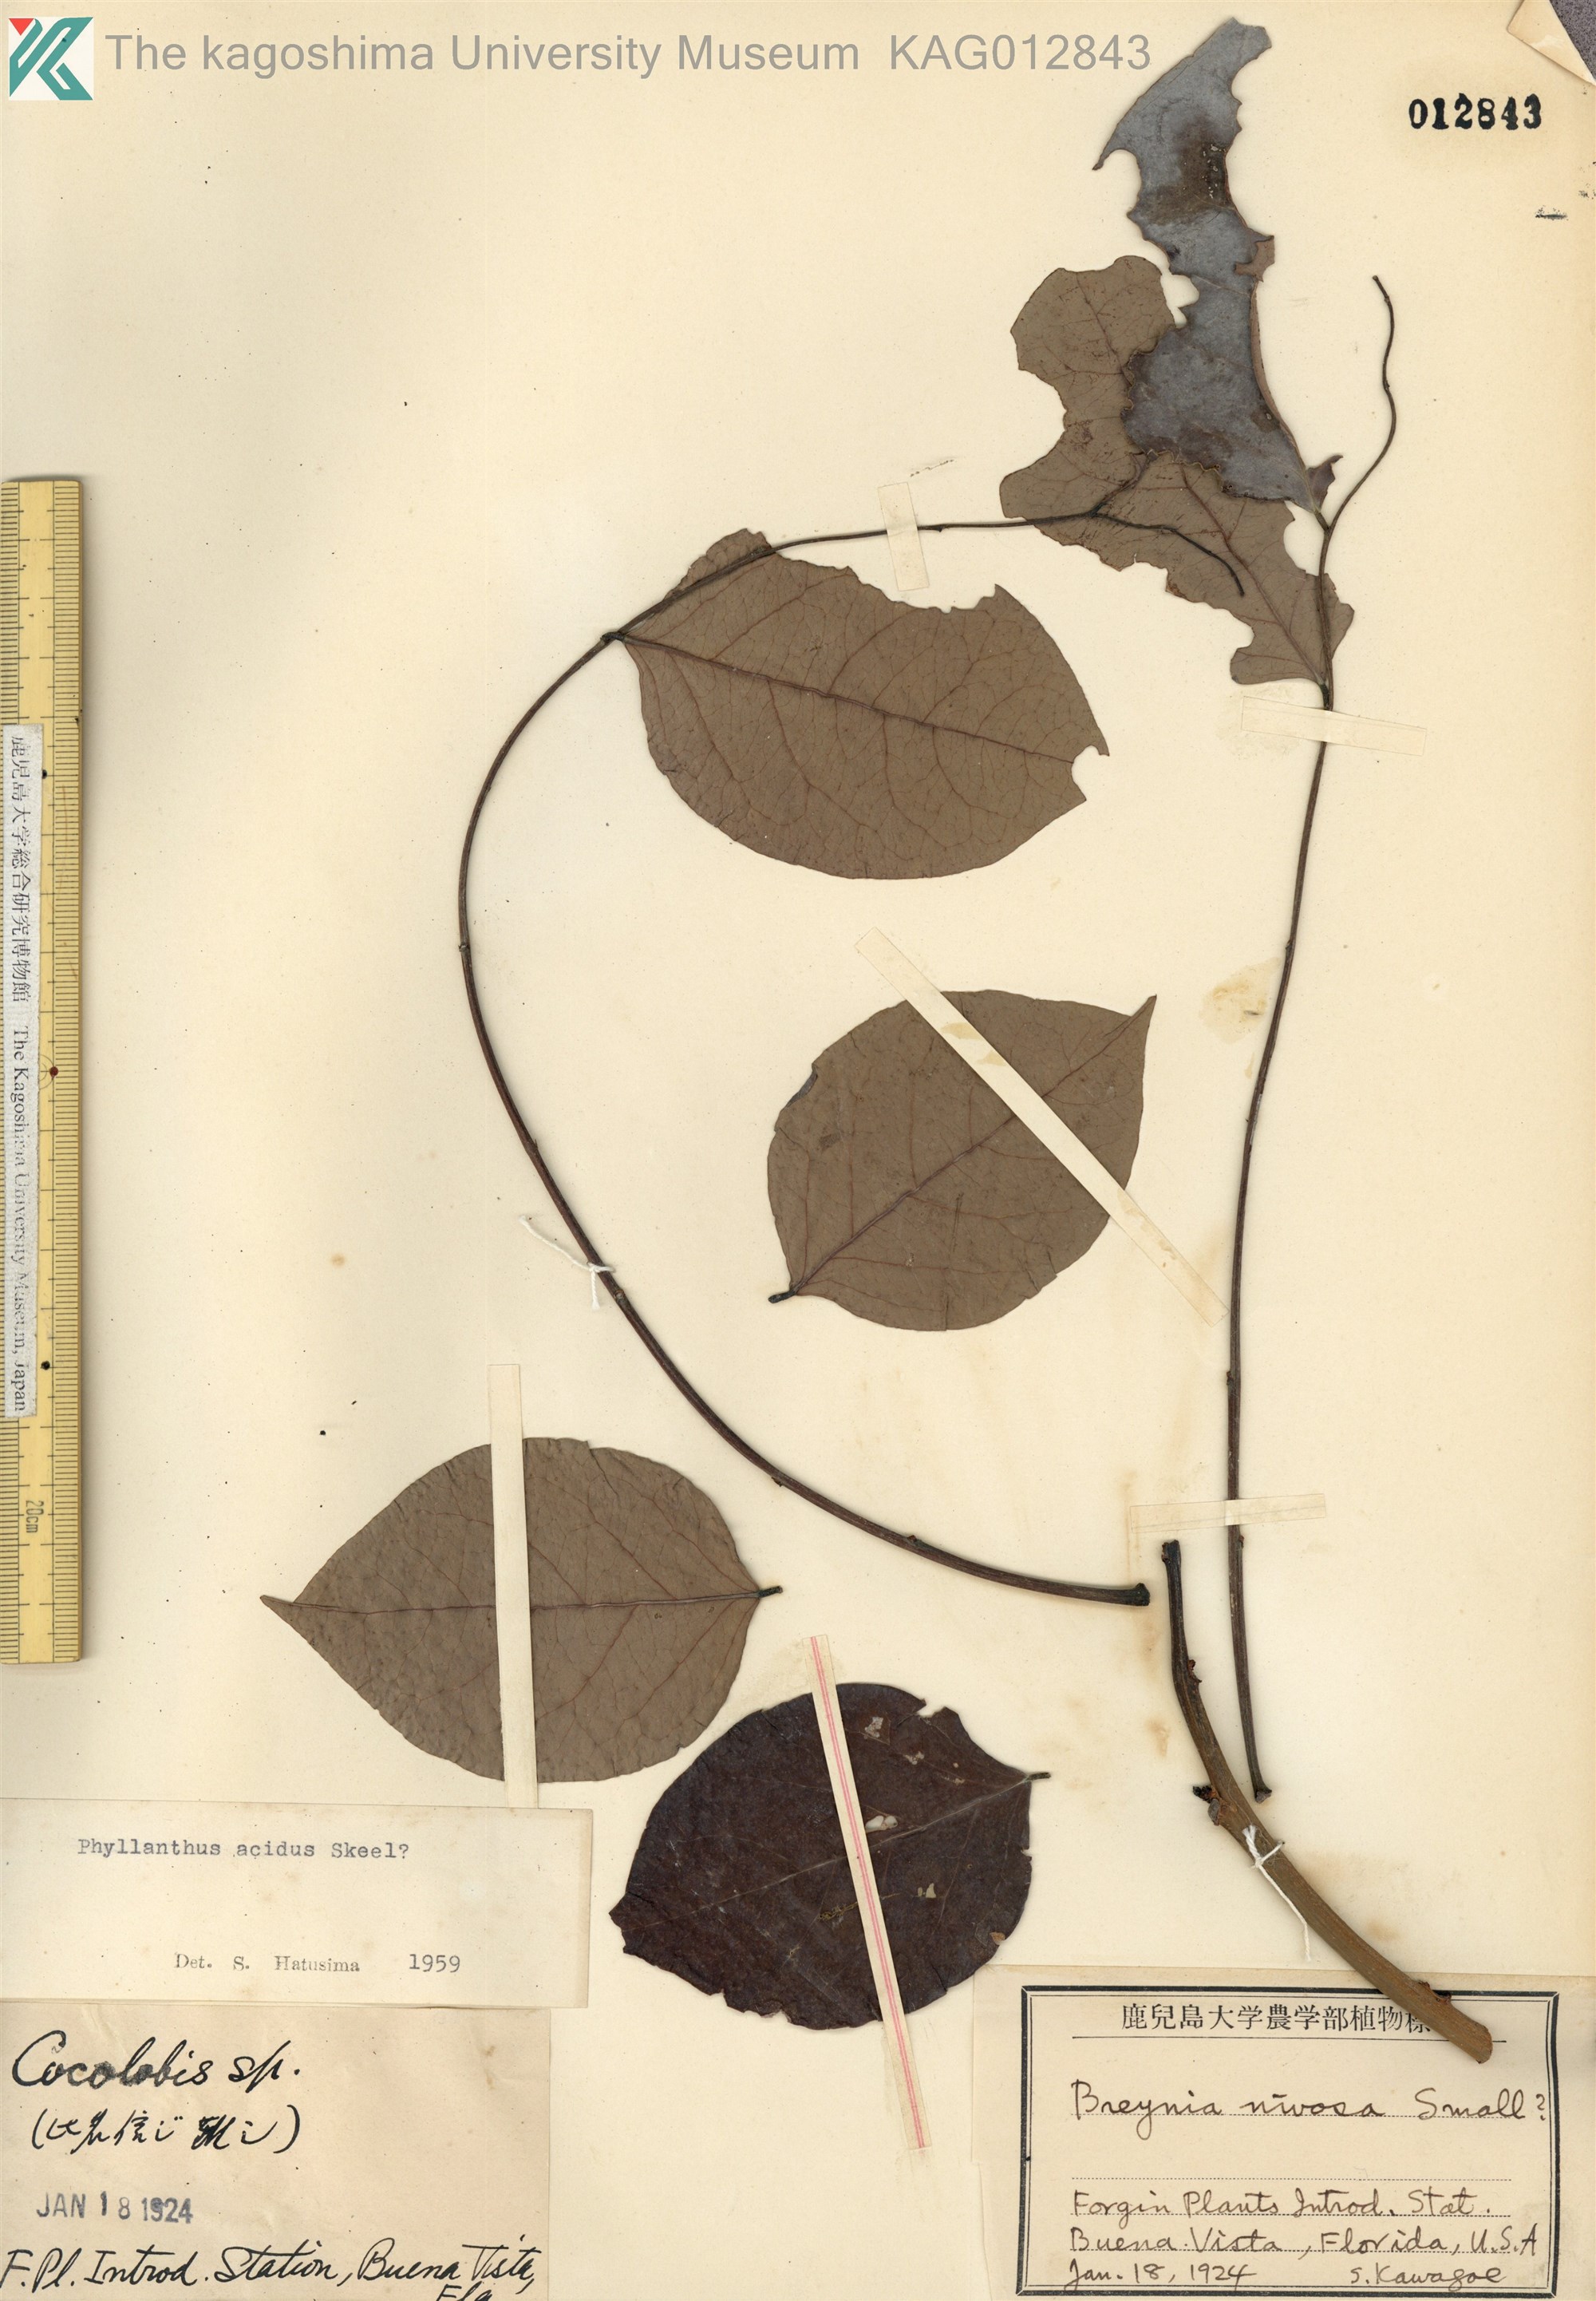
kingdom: Plantae
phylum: Tracheophyta
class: Magnoliopsida
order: Malpighiales
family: Phyllanthaceae
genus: Phyllanthus
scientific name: Phyllanthus acidus
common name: Tahitian gooseberry tree
